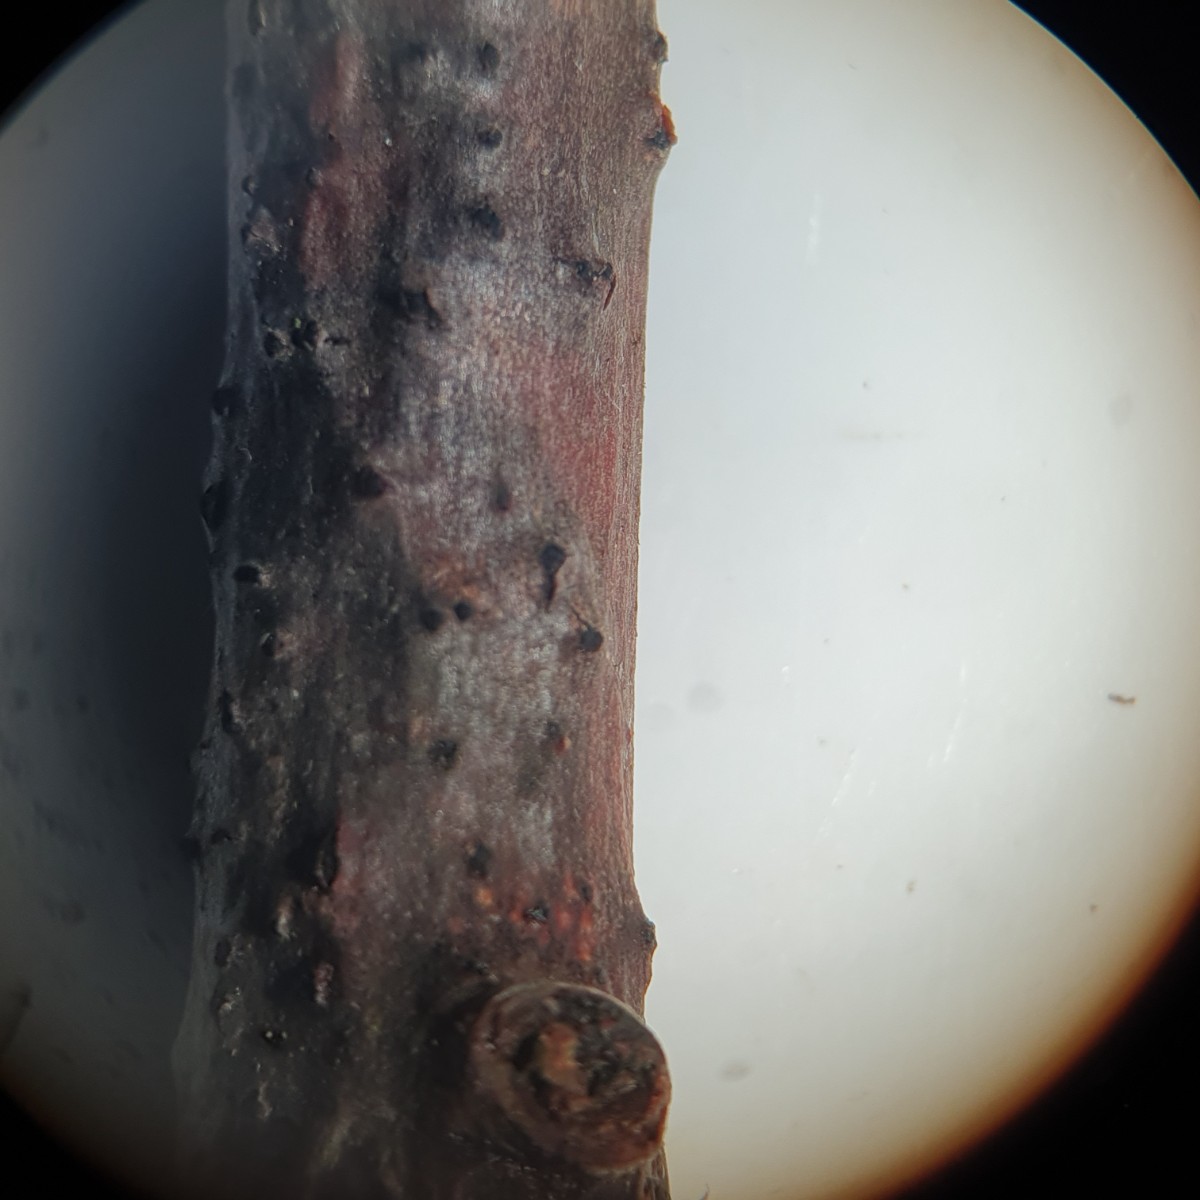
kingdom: Fungi
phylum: Ascomycota
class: Sordariomycetes
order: Xylariales
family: Diatrypaceae
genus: Quaternaria
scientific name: Quaternaria dissepta
